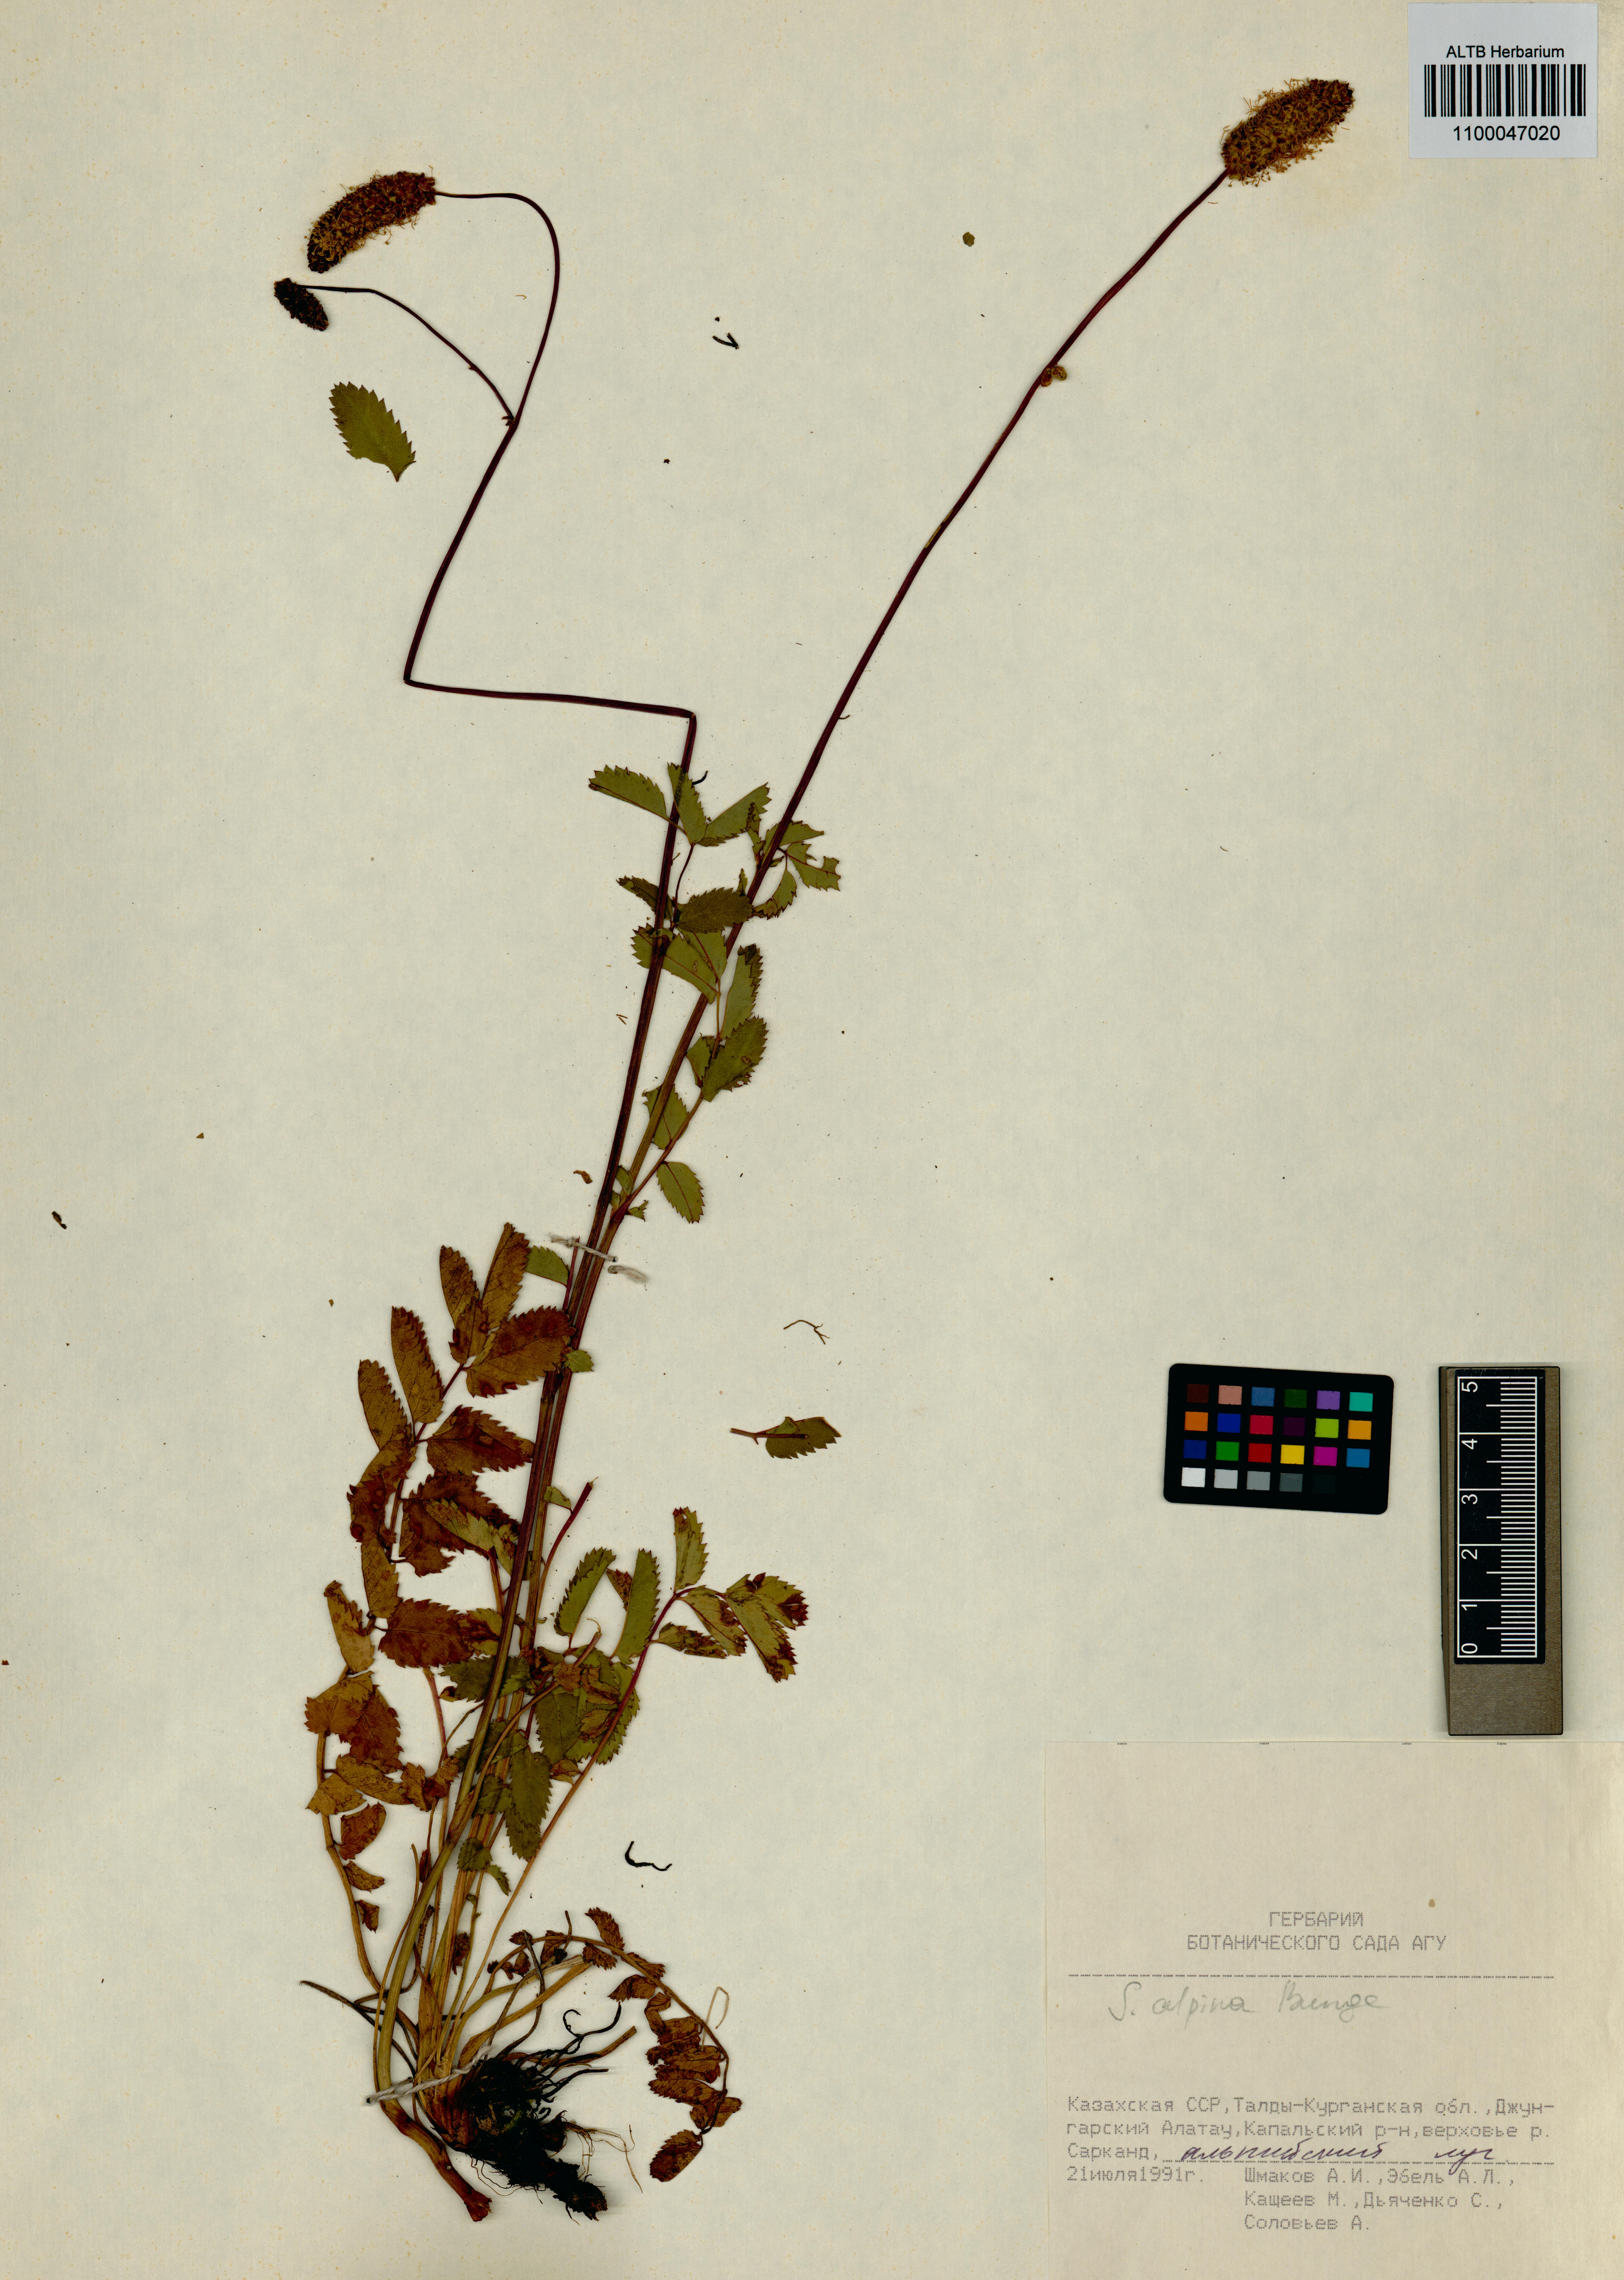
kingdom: Plantae
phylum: Tracheophyta
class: Magnoliopsida
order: Rosales
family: Rosaceae
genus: Sanguisorba
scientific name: Sanguisorba alpina
